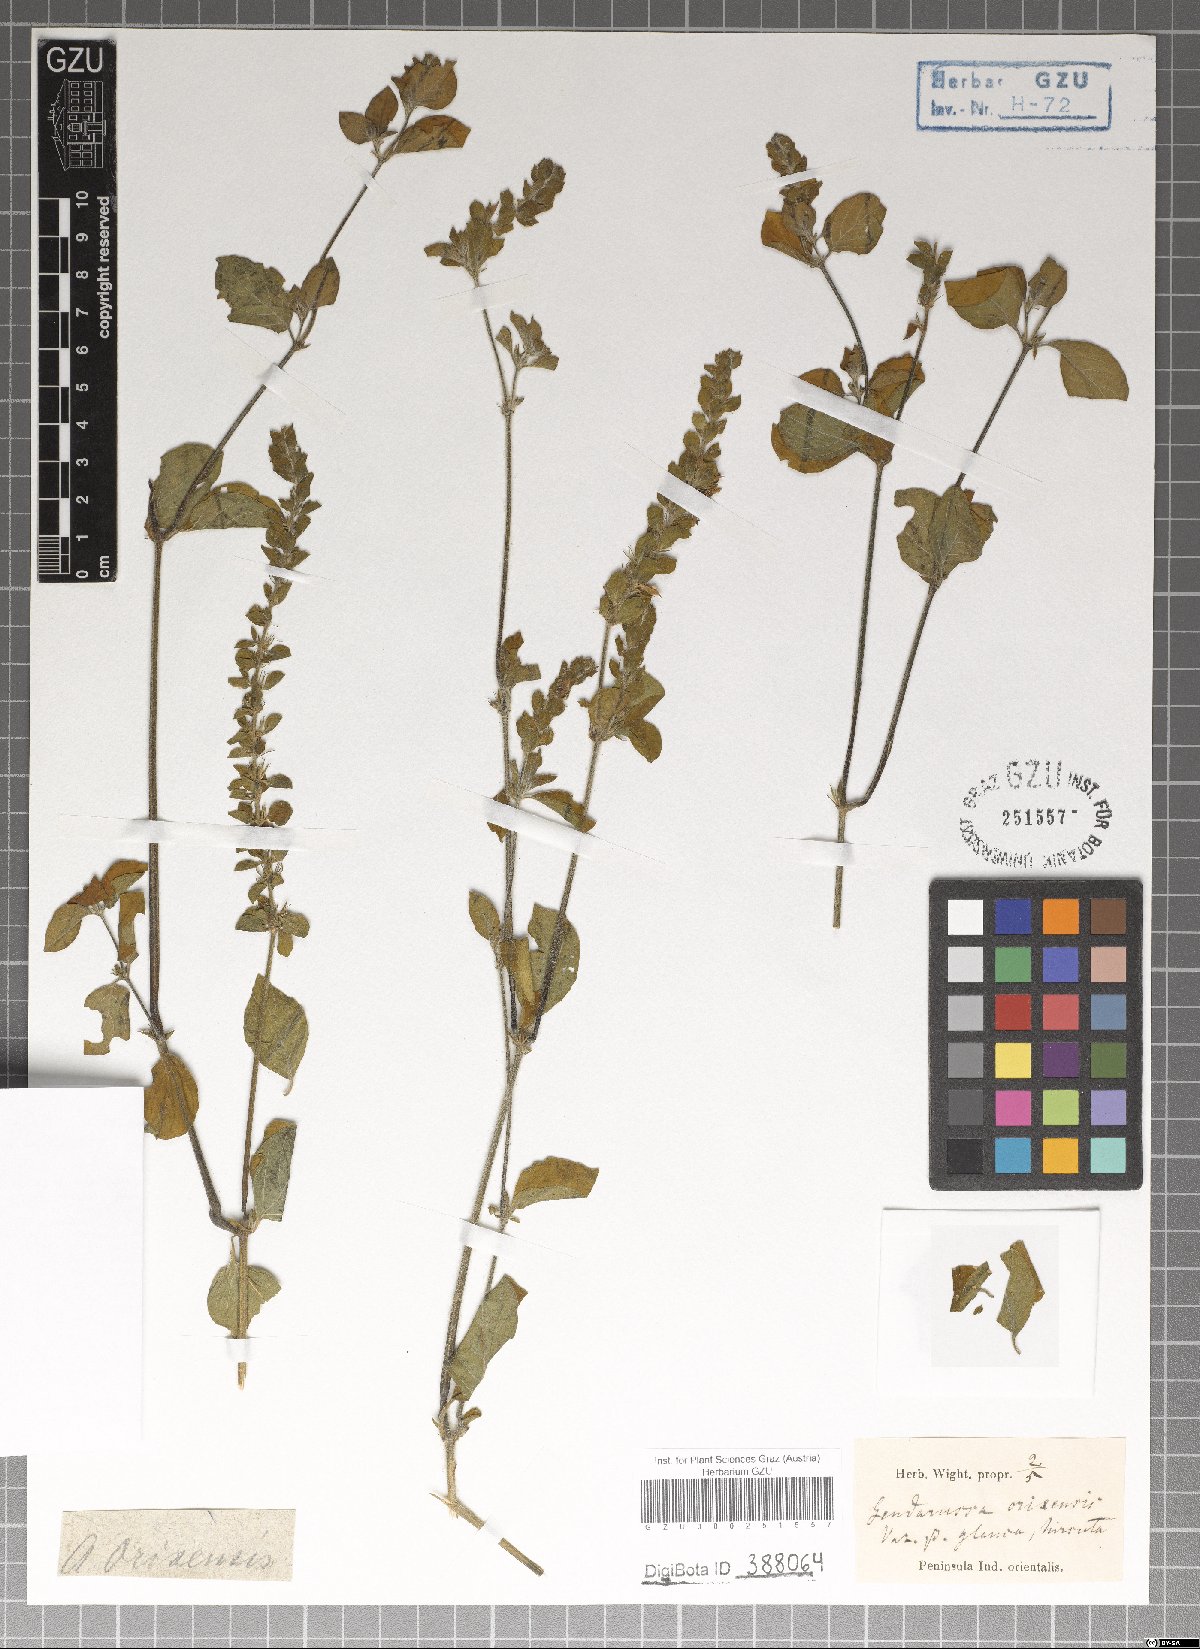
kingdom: Plantae
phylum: Tracheophyta
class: Magnoliopsida
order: Lamiales
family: Acanthaceae
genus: Justicia
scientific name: Justicia glauca
